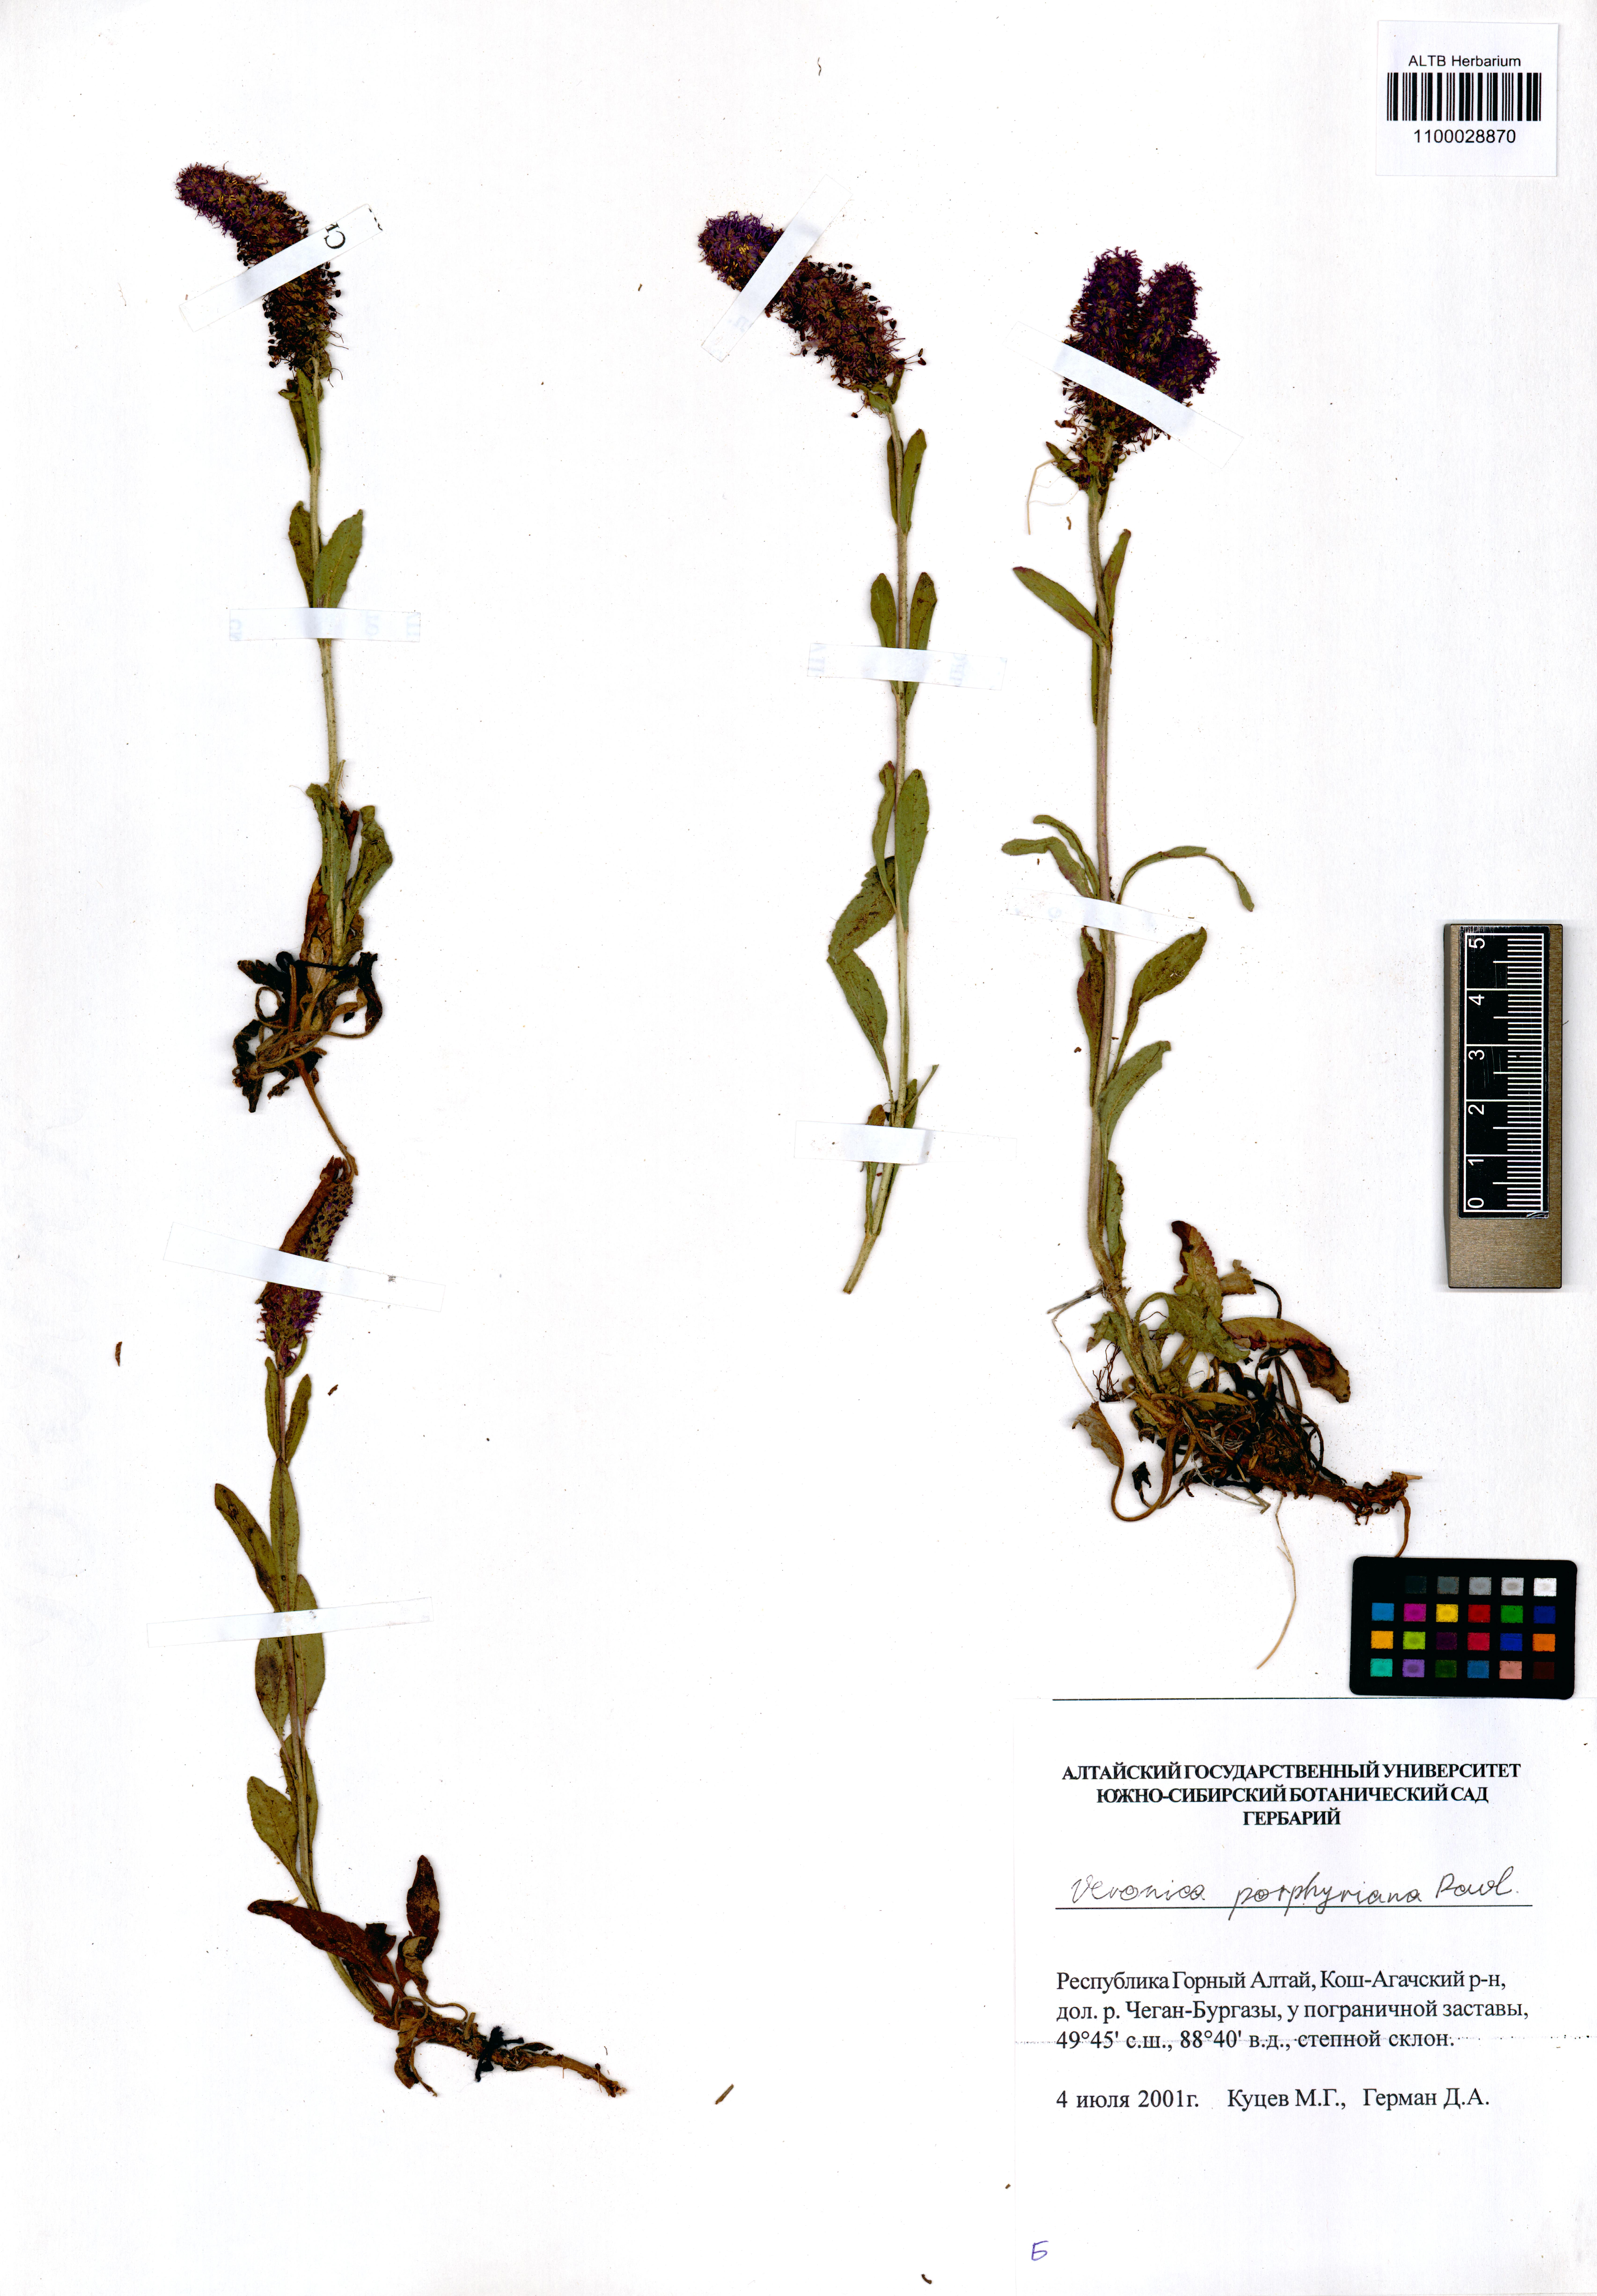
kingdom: Plantae
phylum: Tracheophyta
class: Magnoliopsida
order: Lamiales
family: Plantaginaceae
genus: Veronica
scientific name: Veronica porphyriana
